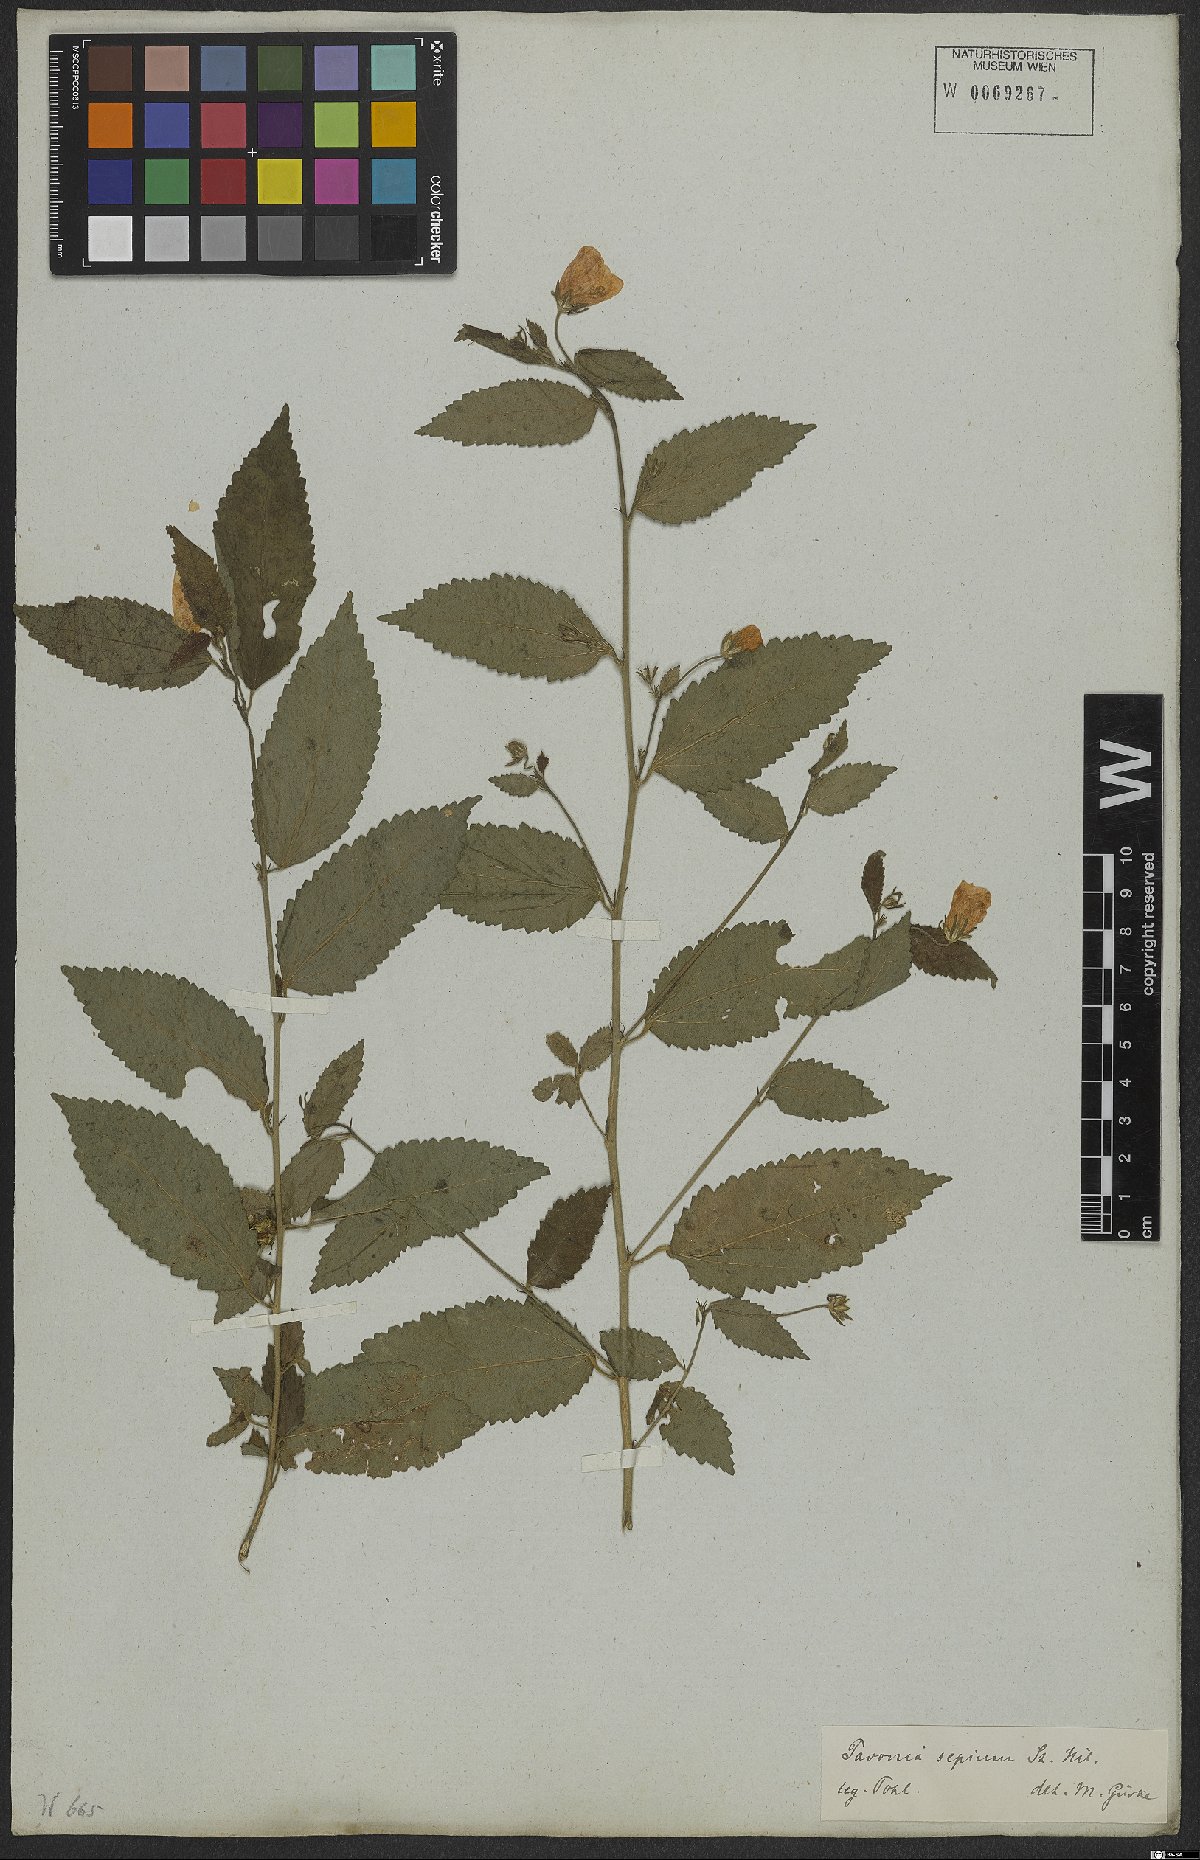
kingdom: Plantae
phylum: Tracheophyta
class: Magnoliopsida
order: Malvales
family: Malvaceae
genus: Pavonia
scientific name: Pavonia sepium
